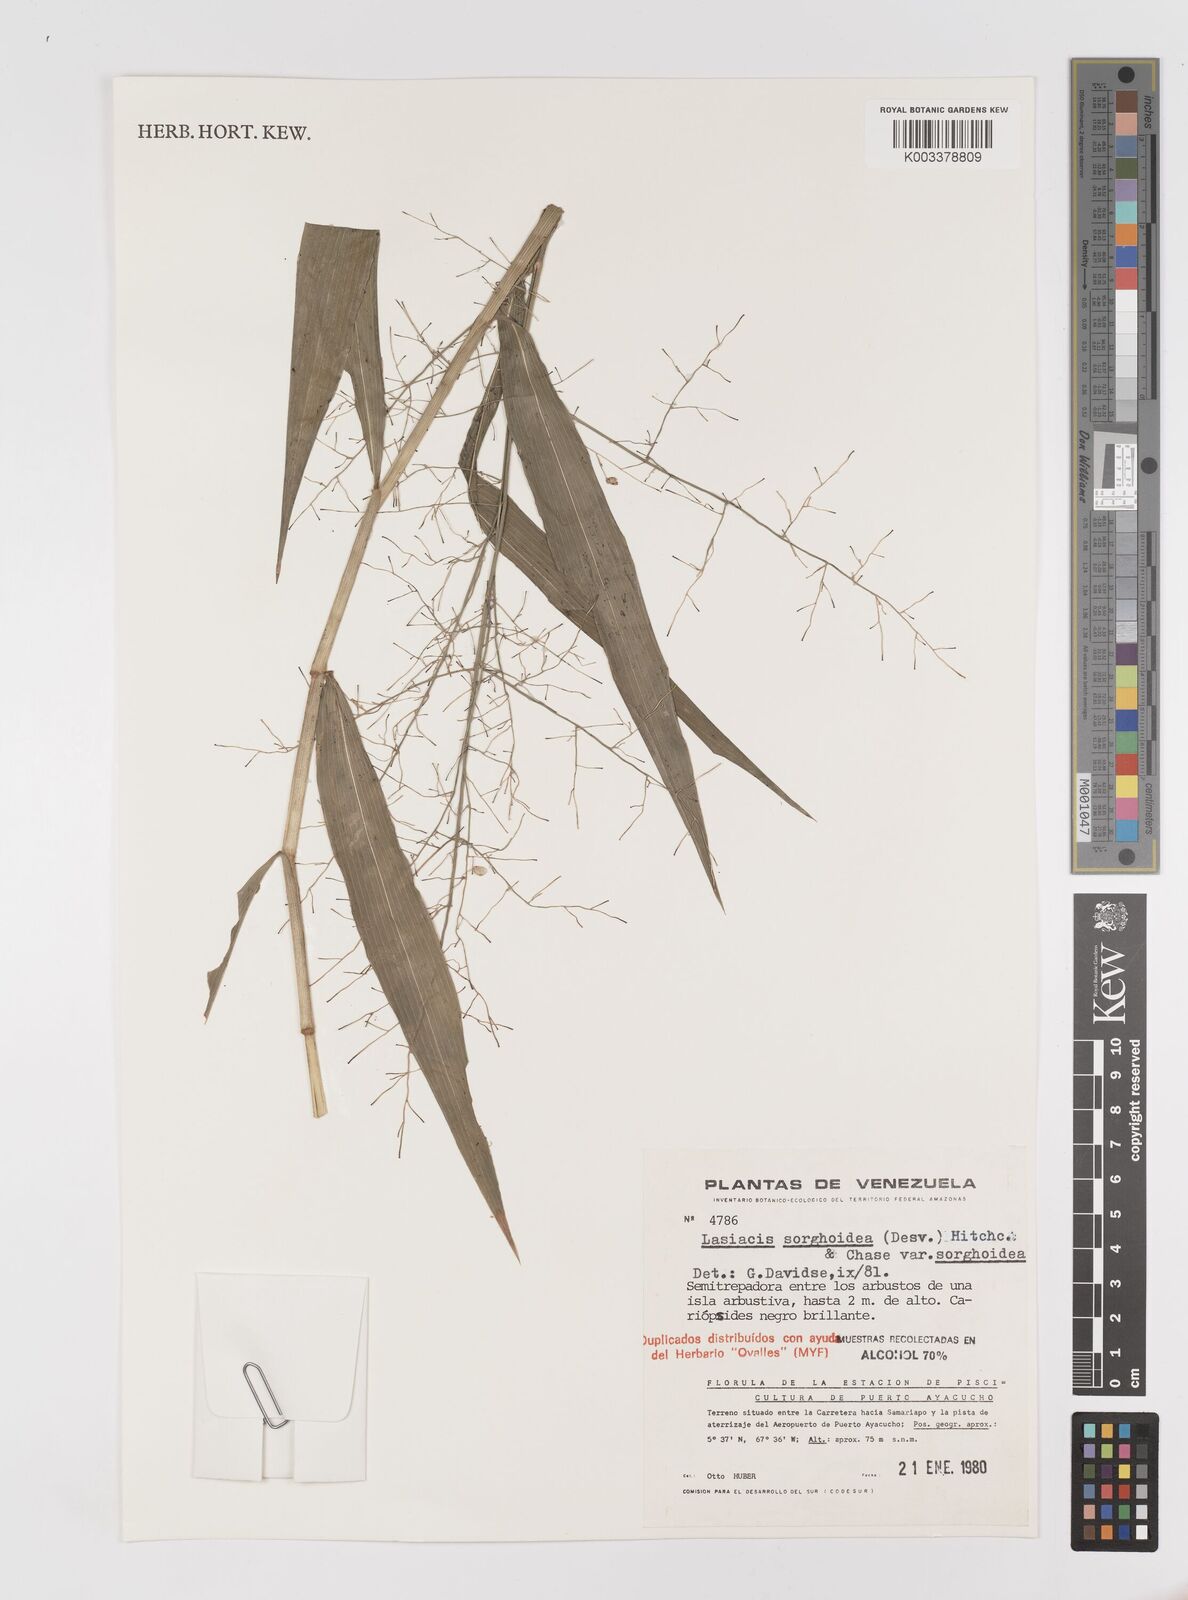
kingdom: Plantae
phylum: Tracheophyta
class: Liliopsida
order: Poales
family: Poaceae
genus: Lasiacis
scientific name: Lasiacis
